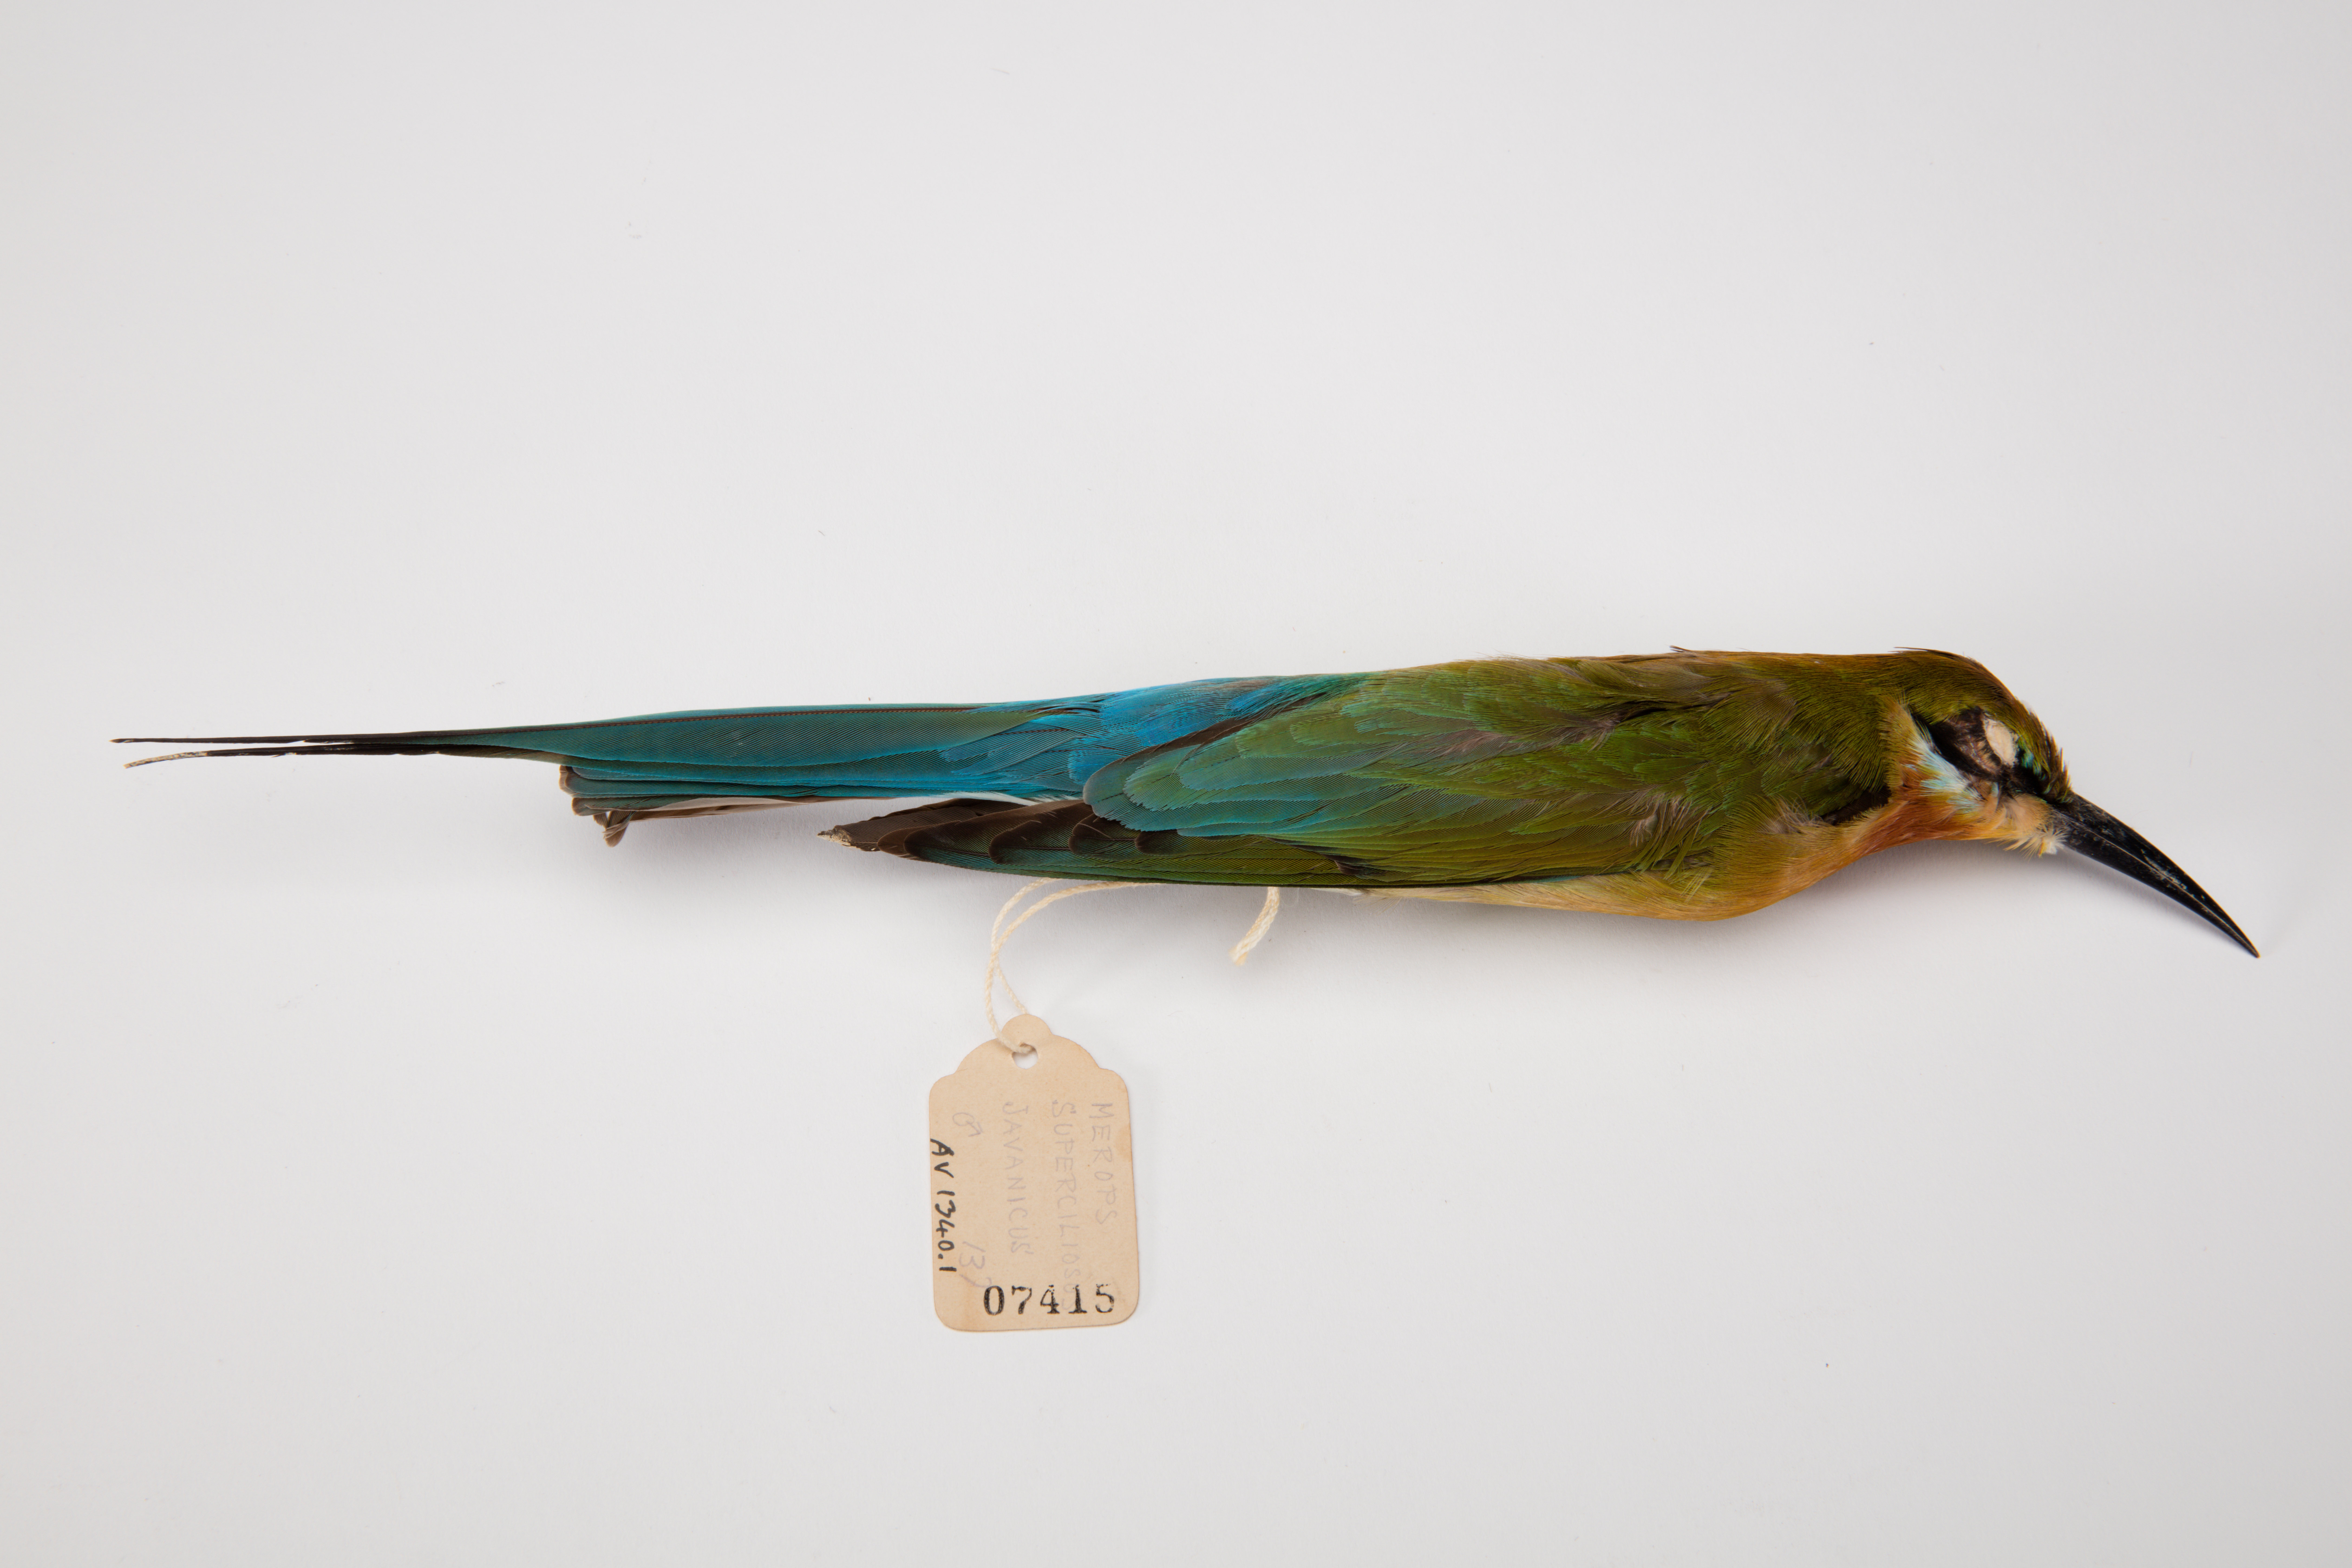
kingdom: Animalia
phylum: Chordata
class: Aves
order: Coraciiformes
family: Meropidae
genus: Merops
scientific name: Merops superciliosus
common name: Olive bee-eater
